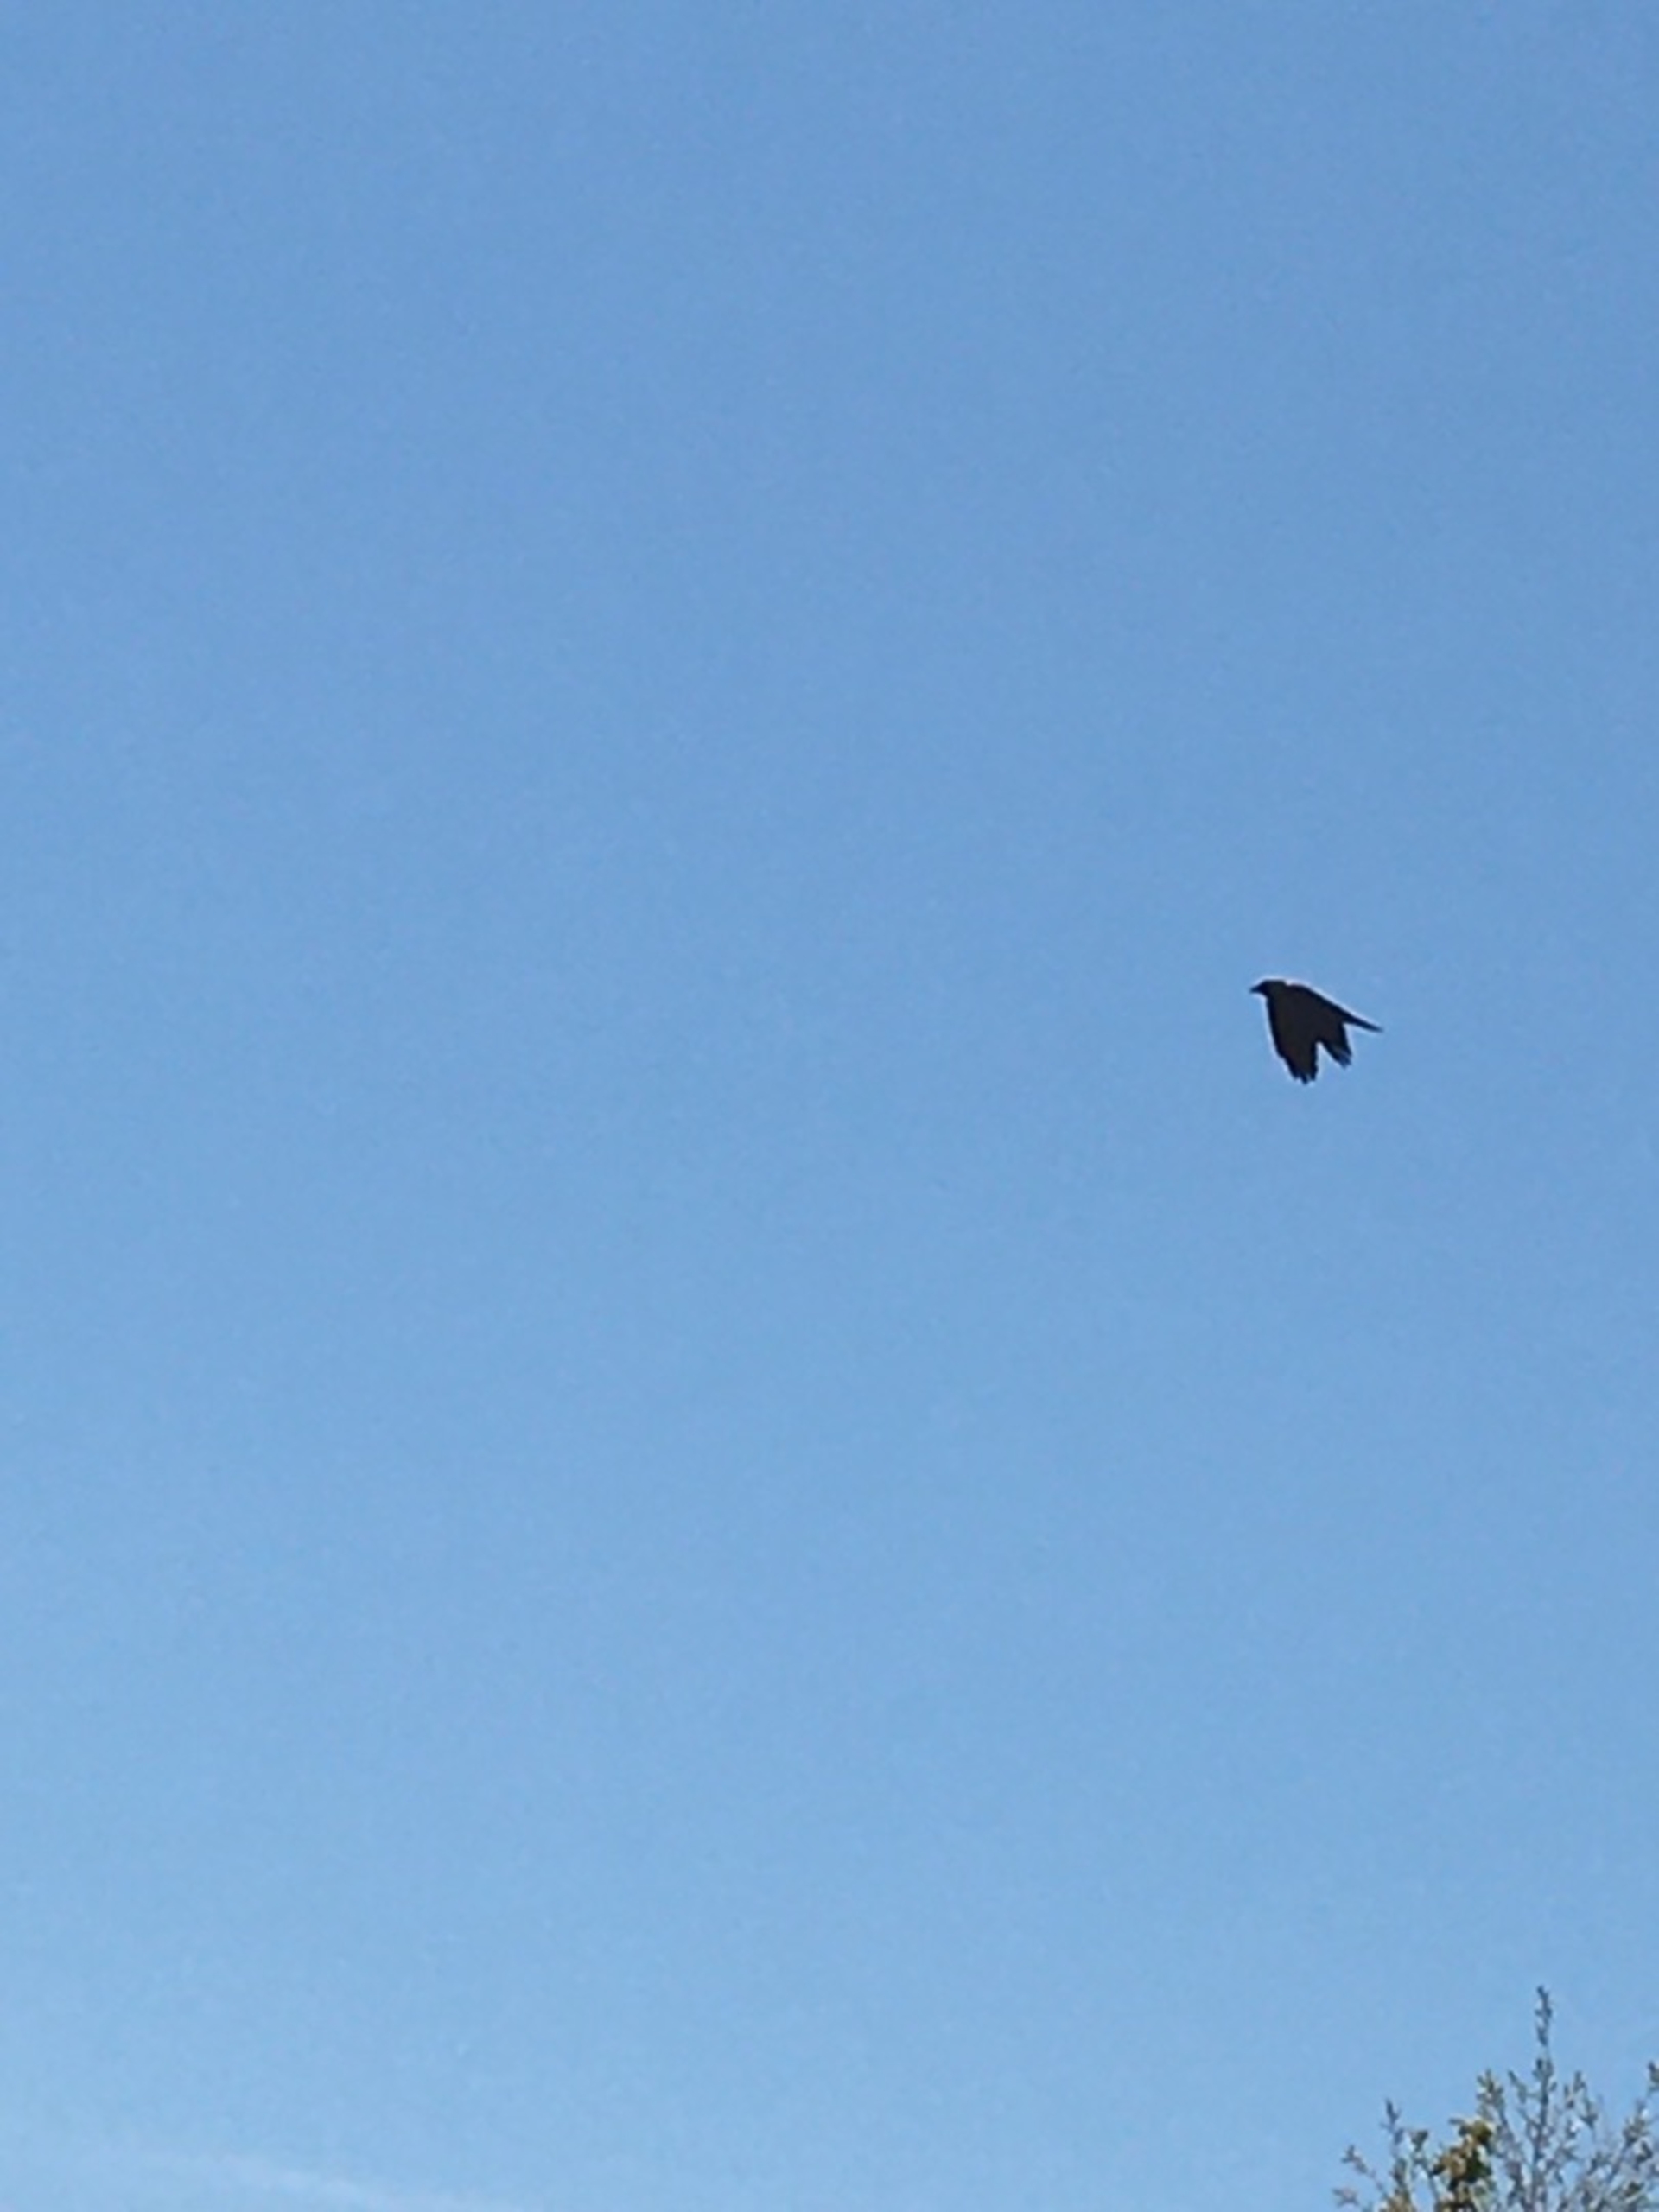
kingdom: Animalia
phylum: Chordata
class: Aves
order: Passeriformes
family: Corvidae
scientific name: Corvidae
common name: Kragefugle
